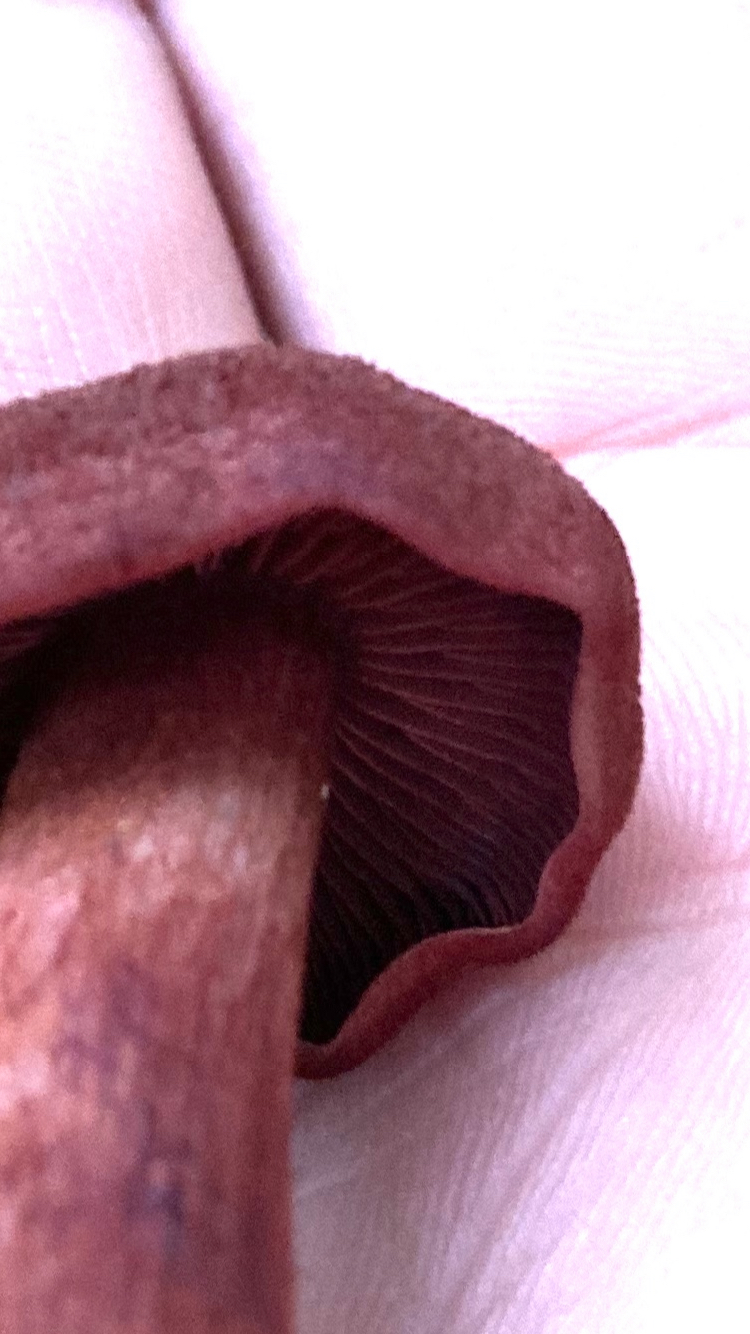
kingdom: Fungi
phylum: Basidiomycota
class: Agaricomycetes
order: Agaricales
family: Cortinariaceae
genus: Cortinarius
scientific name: Cortinarius sanguineus
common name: blodrød slørhat
